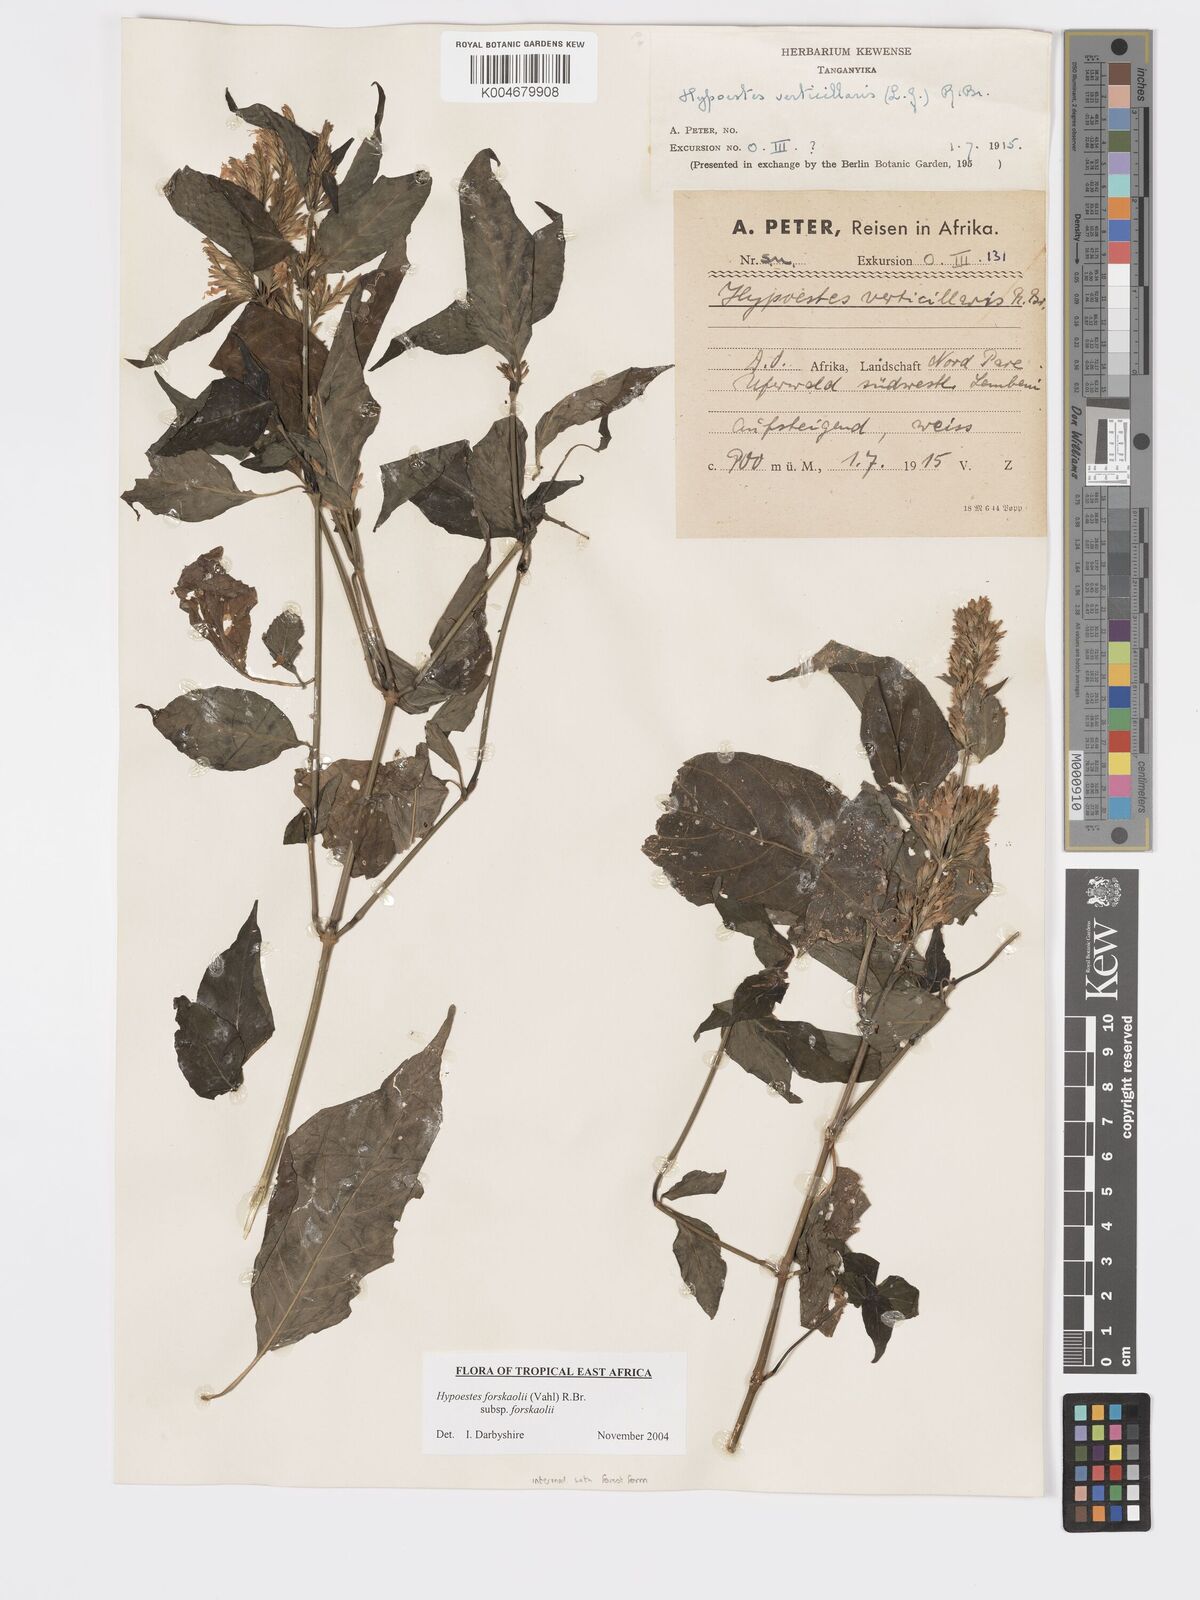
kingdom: Plantae
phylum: Tracheophyta
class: Magnoliopsida
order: Lamiales
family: Acanthaceae
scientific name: Acanthaceae
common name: Acanthaceae
